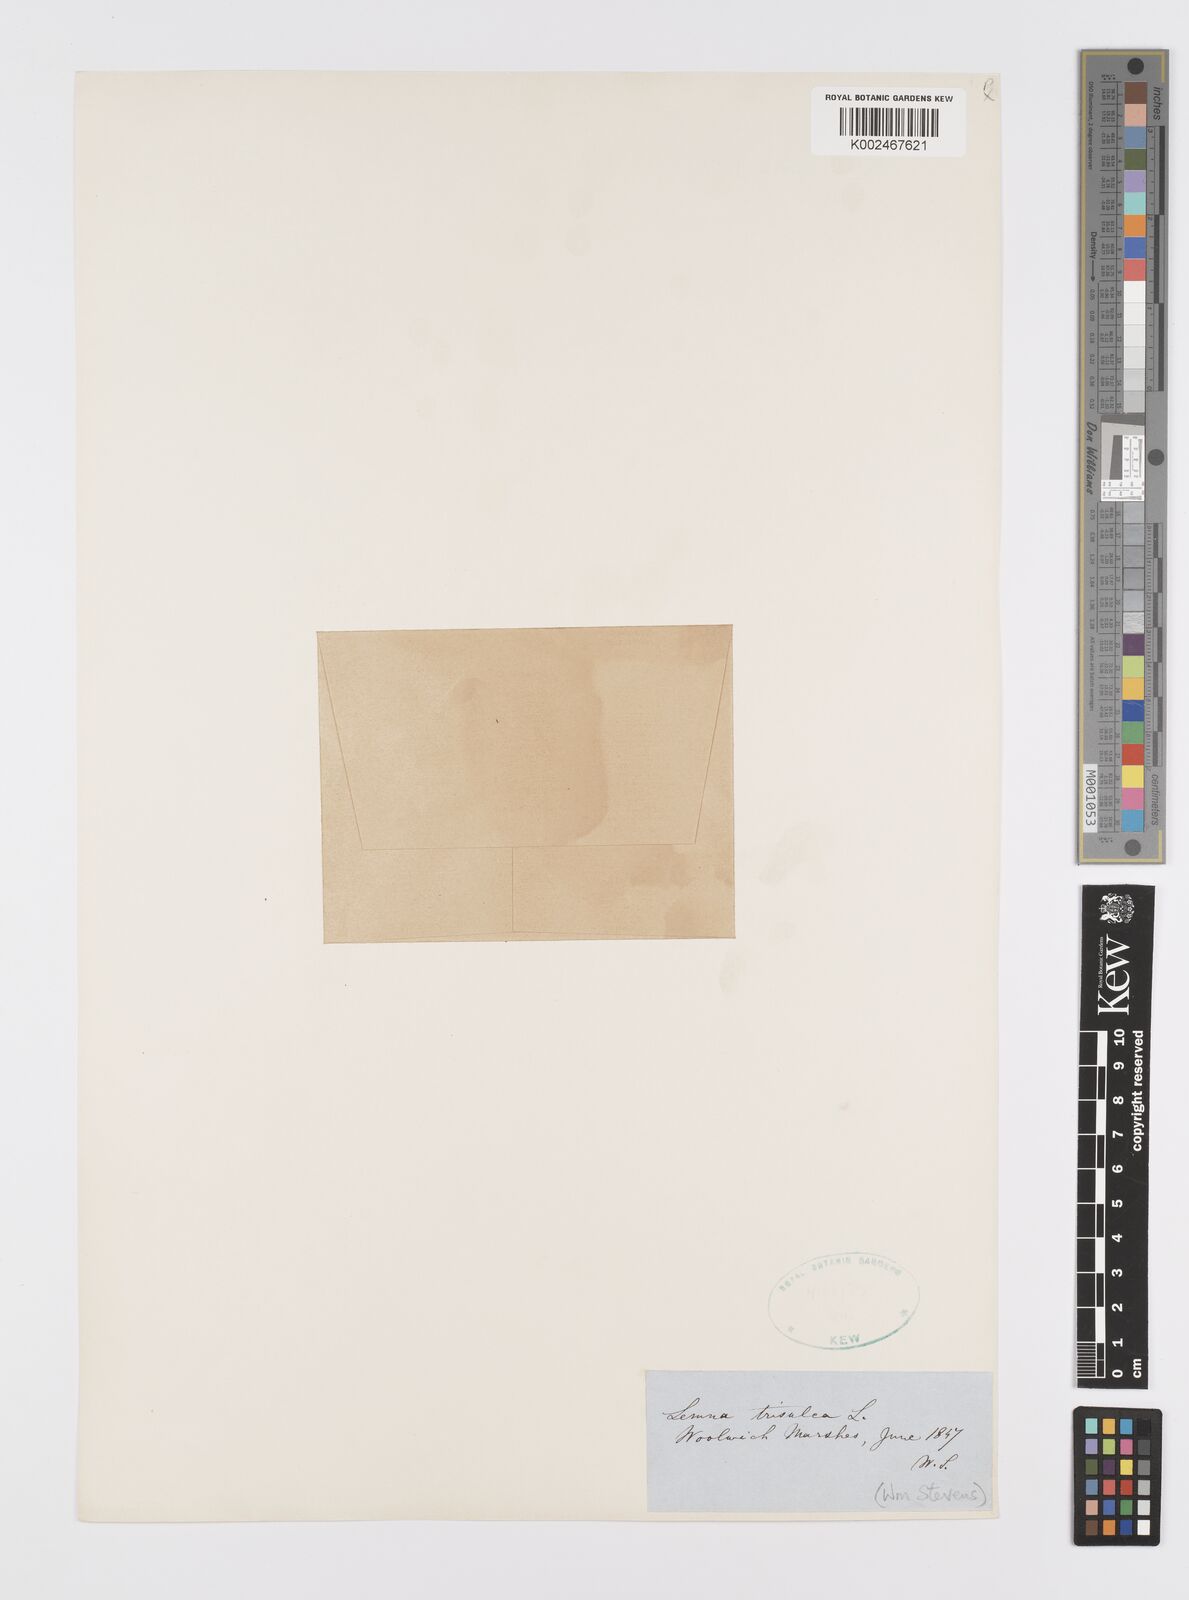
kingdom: Plantae
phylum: Tracheophyta
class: Liliopsida
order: Alismatales
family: Araceae
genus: Lemna
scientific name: Lemna trisulca
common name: Ivy-leaved duckweed
